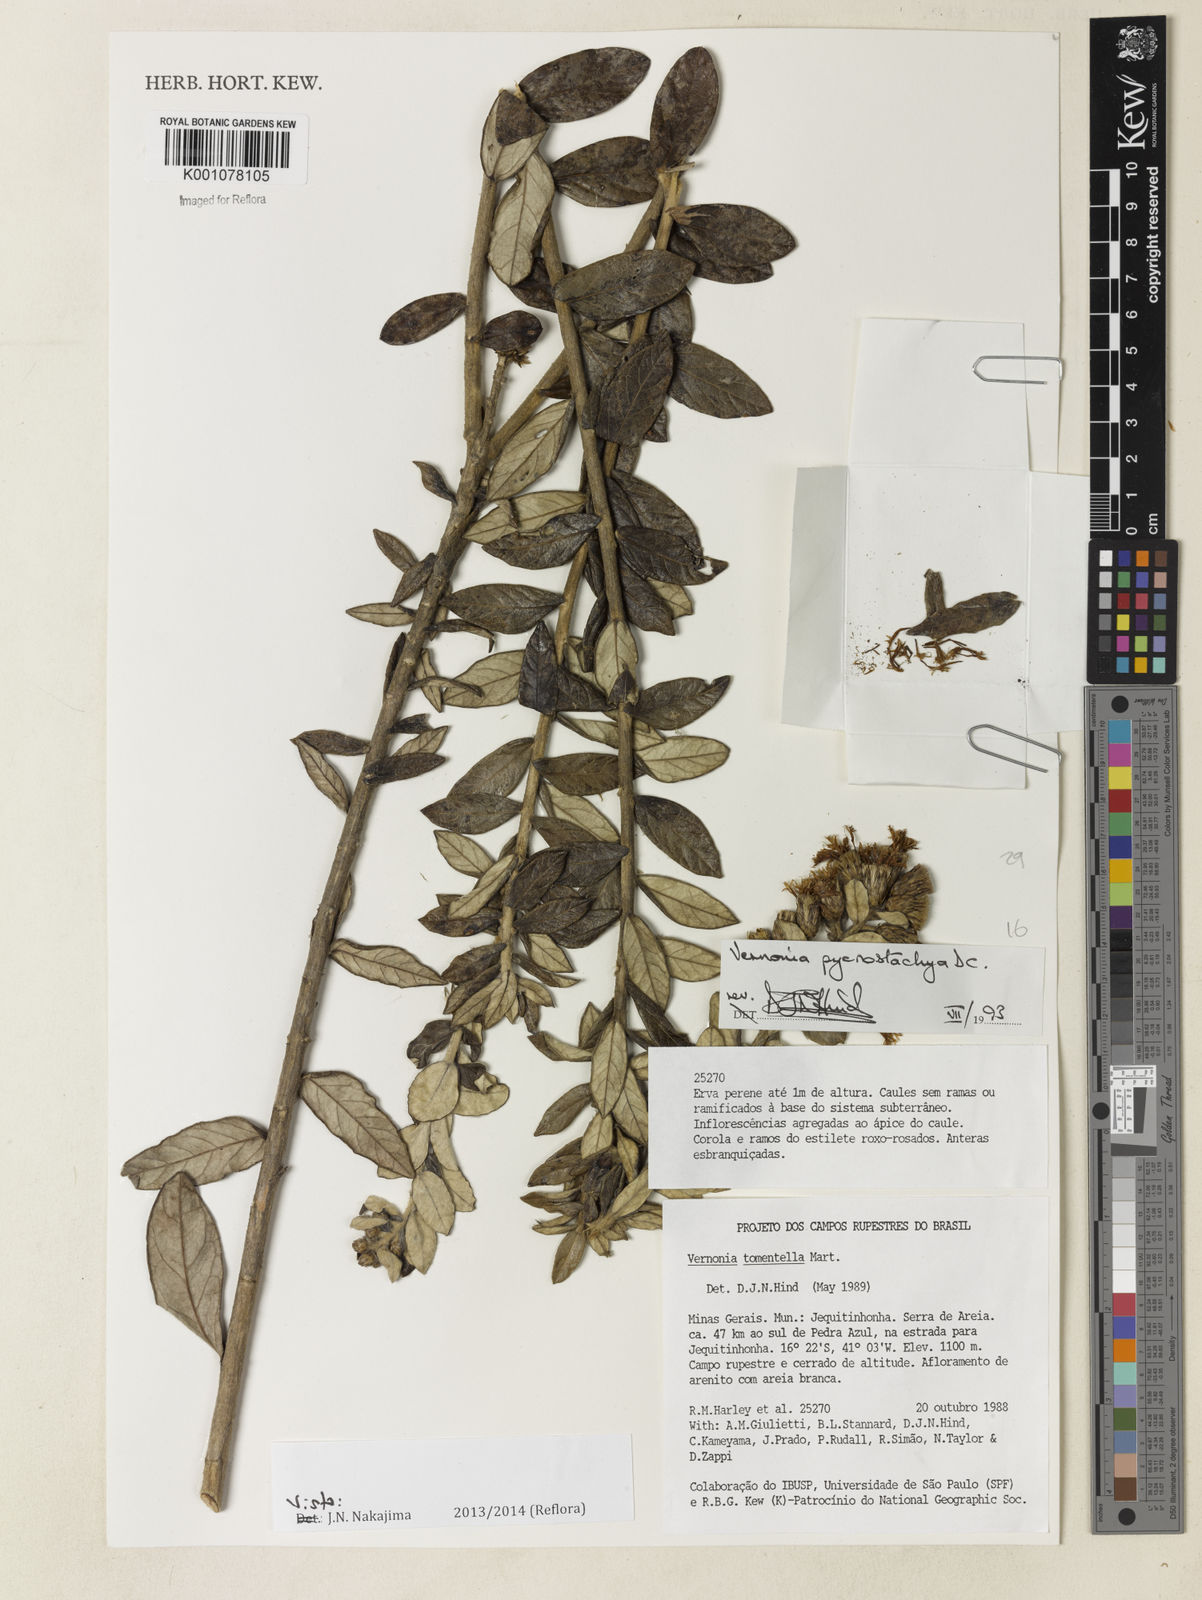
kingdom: Plantae
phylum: Tracheophyta
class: Magnoliopsida
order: Asterales
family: Asteraceae
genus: Lessingianthus
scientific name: Lessingianthus pycnostachyus
